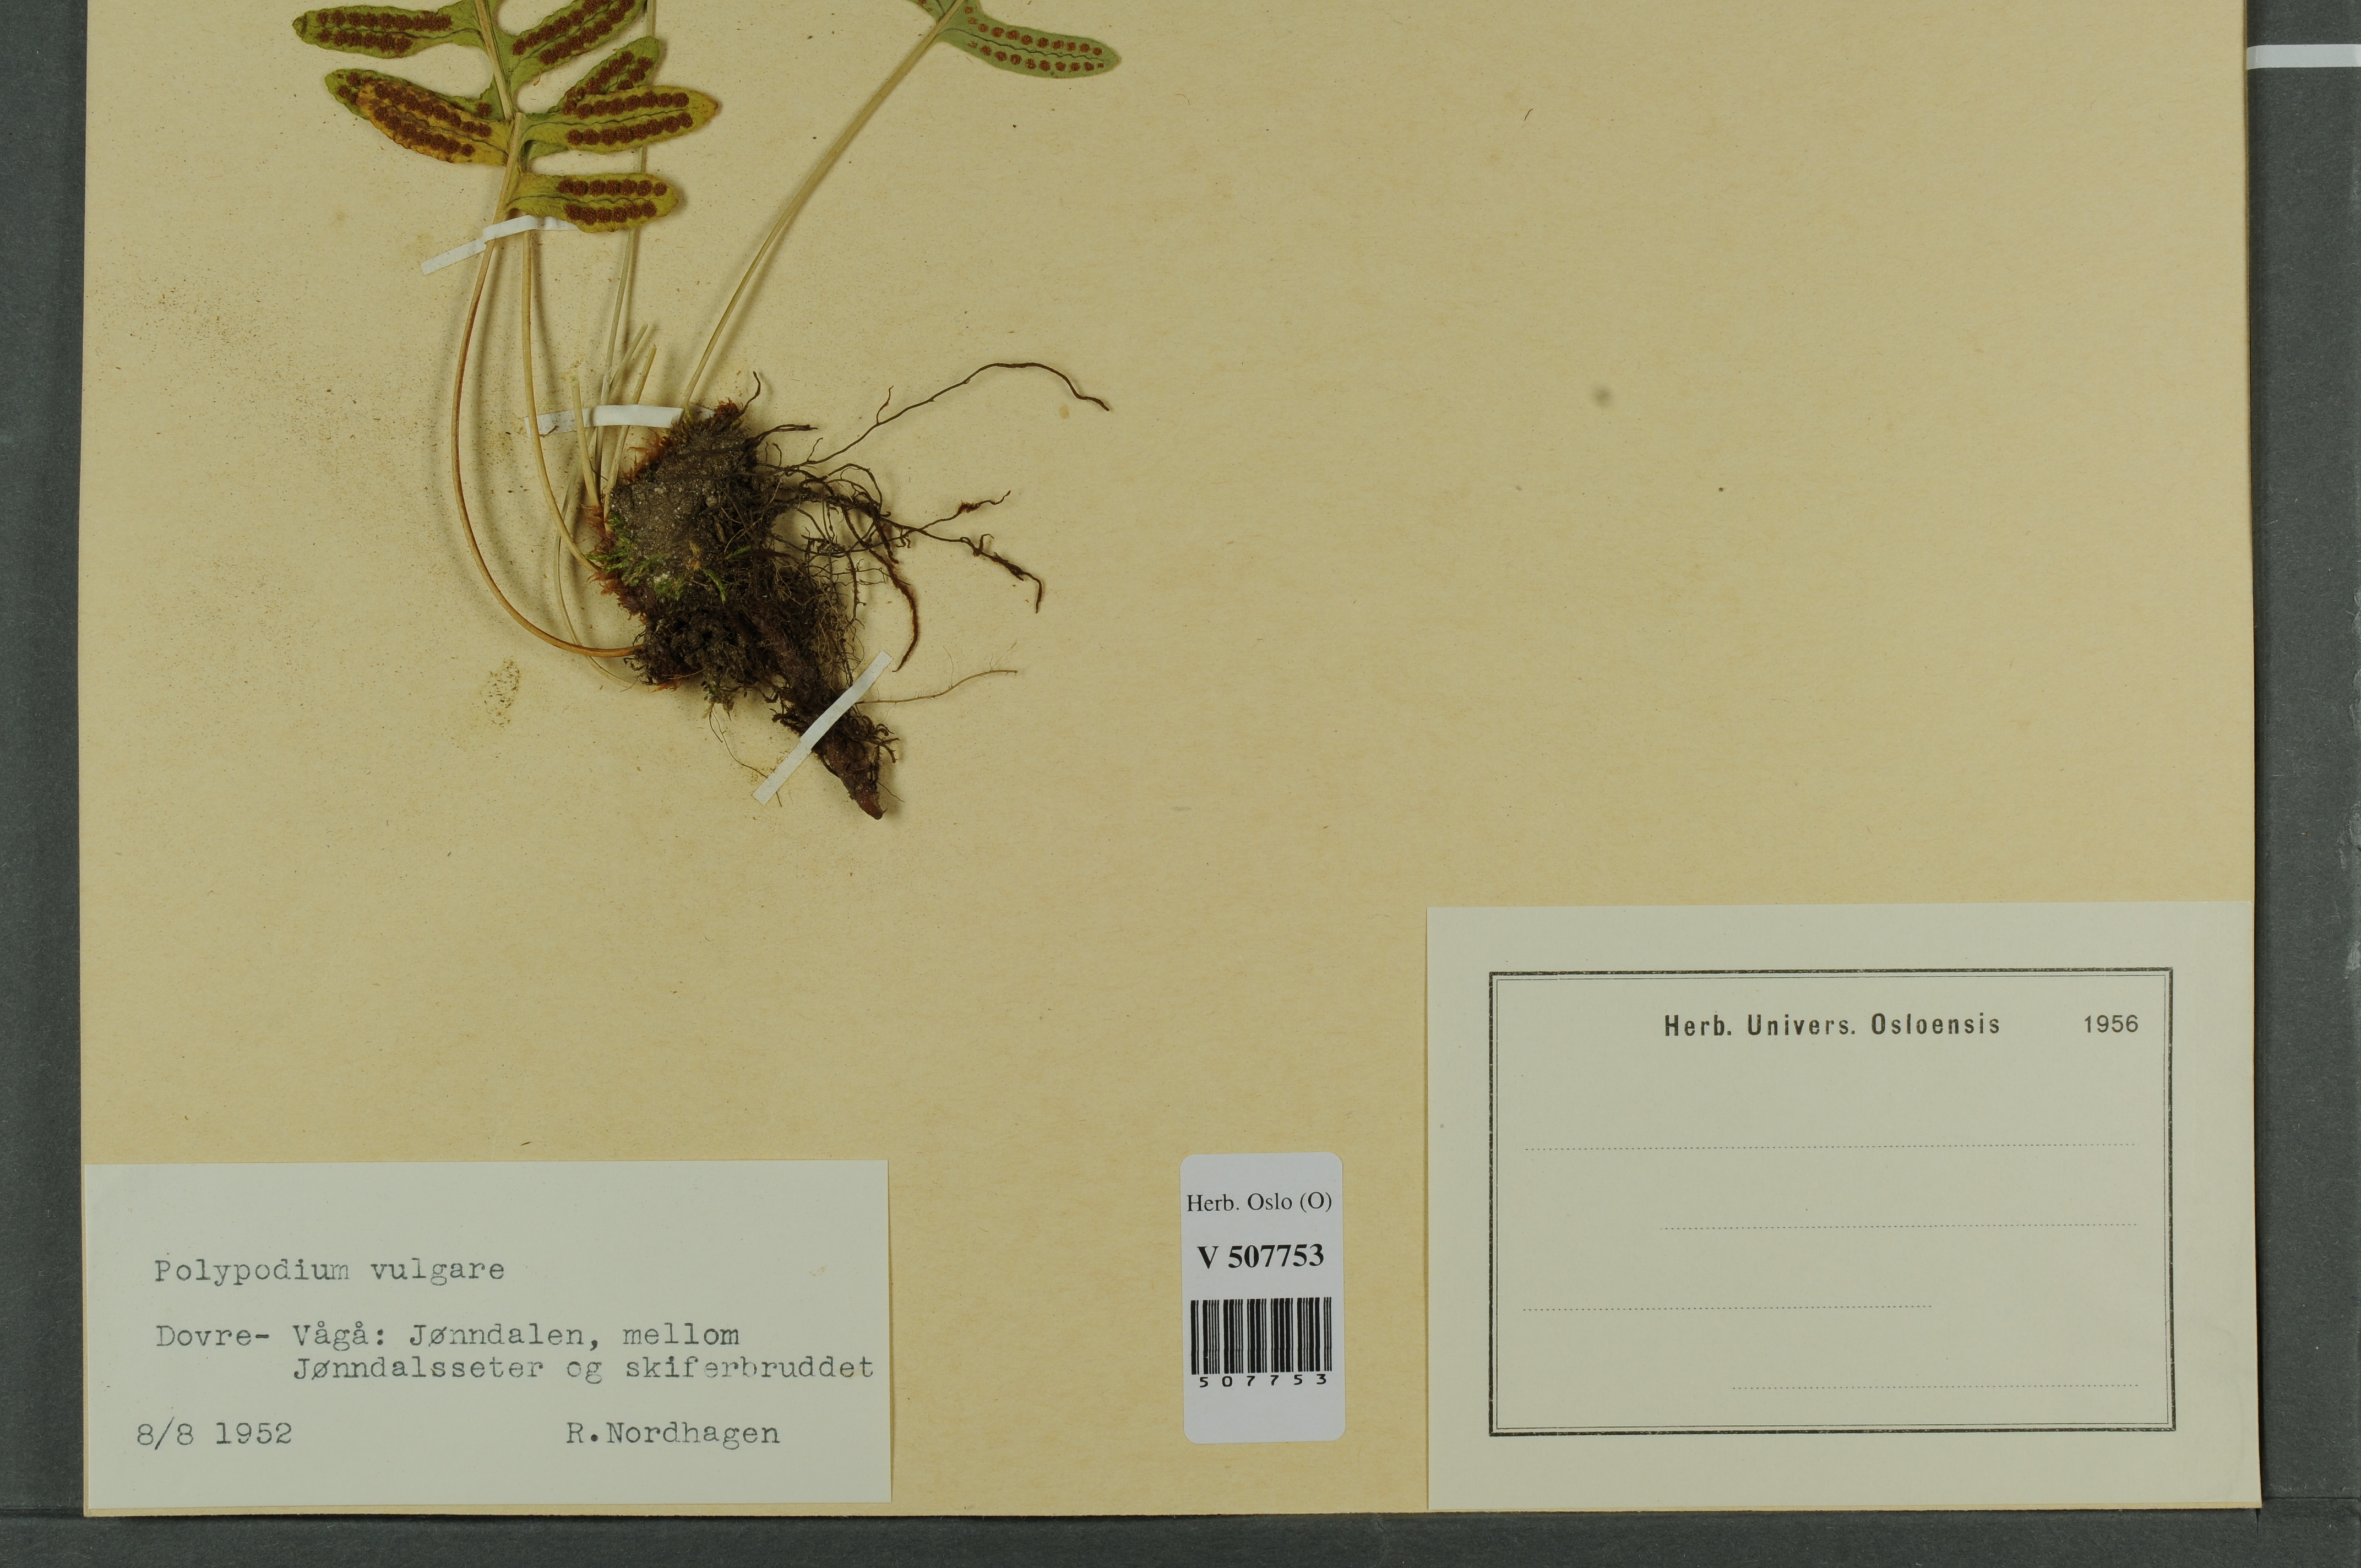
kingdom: Plantae
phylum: Tracheophyta
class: Polypodiopsida
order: Polypodiales
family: Polypodiaceae
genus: Polypodium
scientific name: Polypodium vulgare
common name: Common polypody
